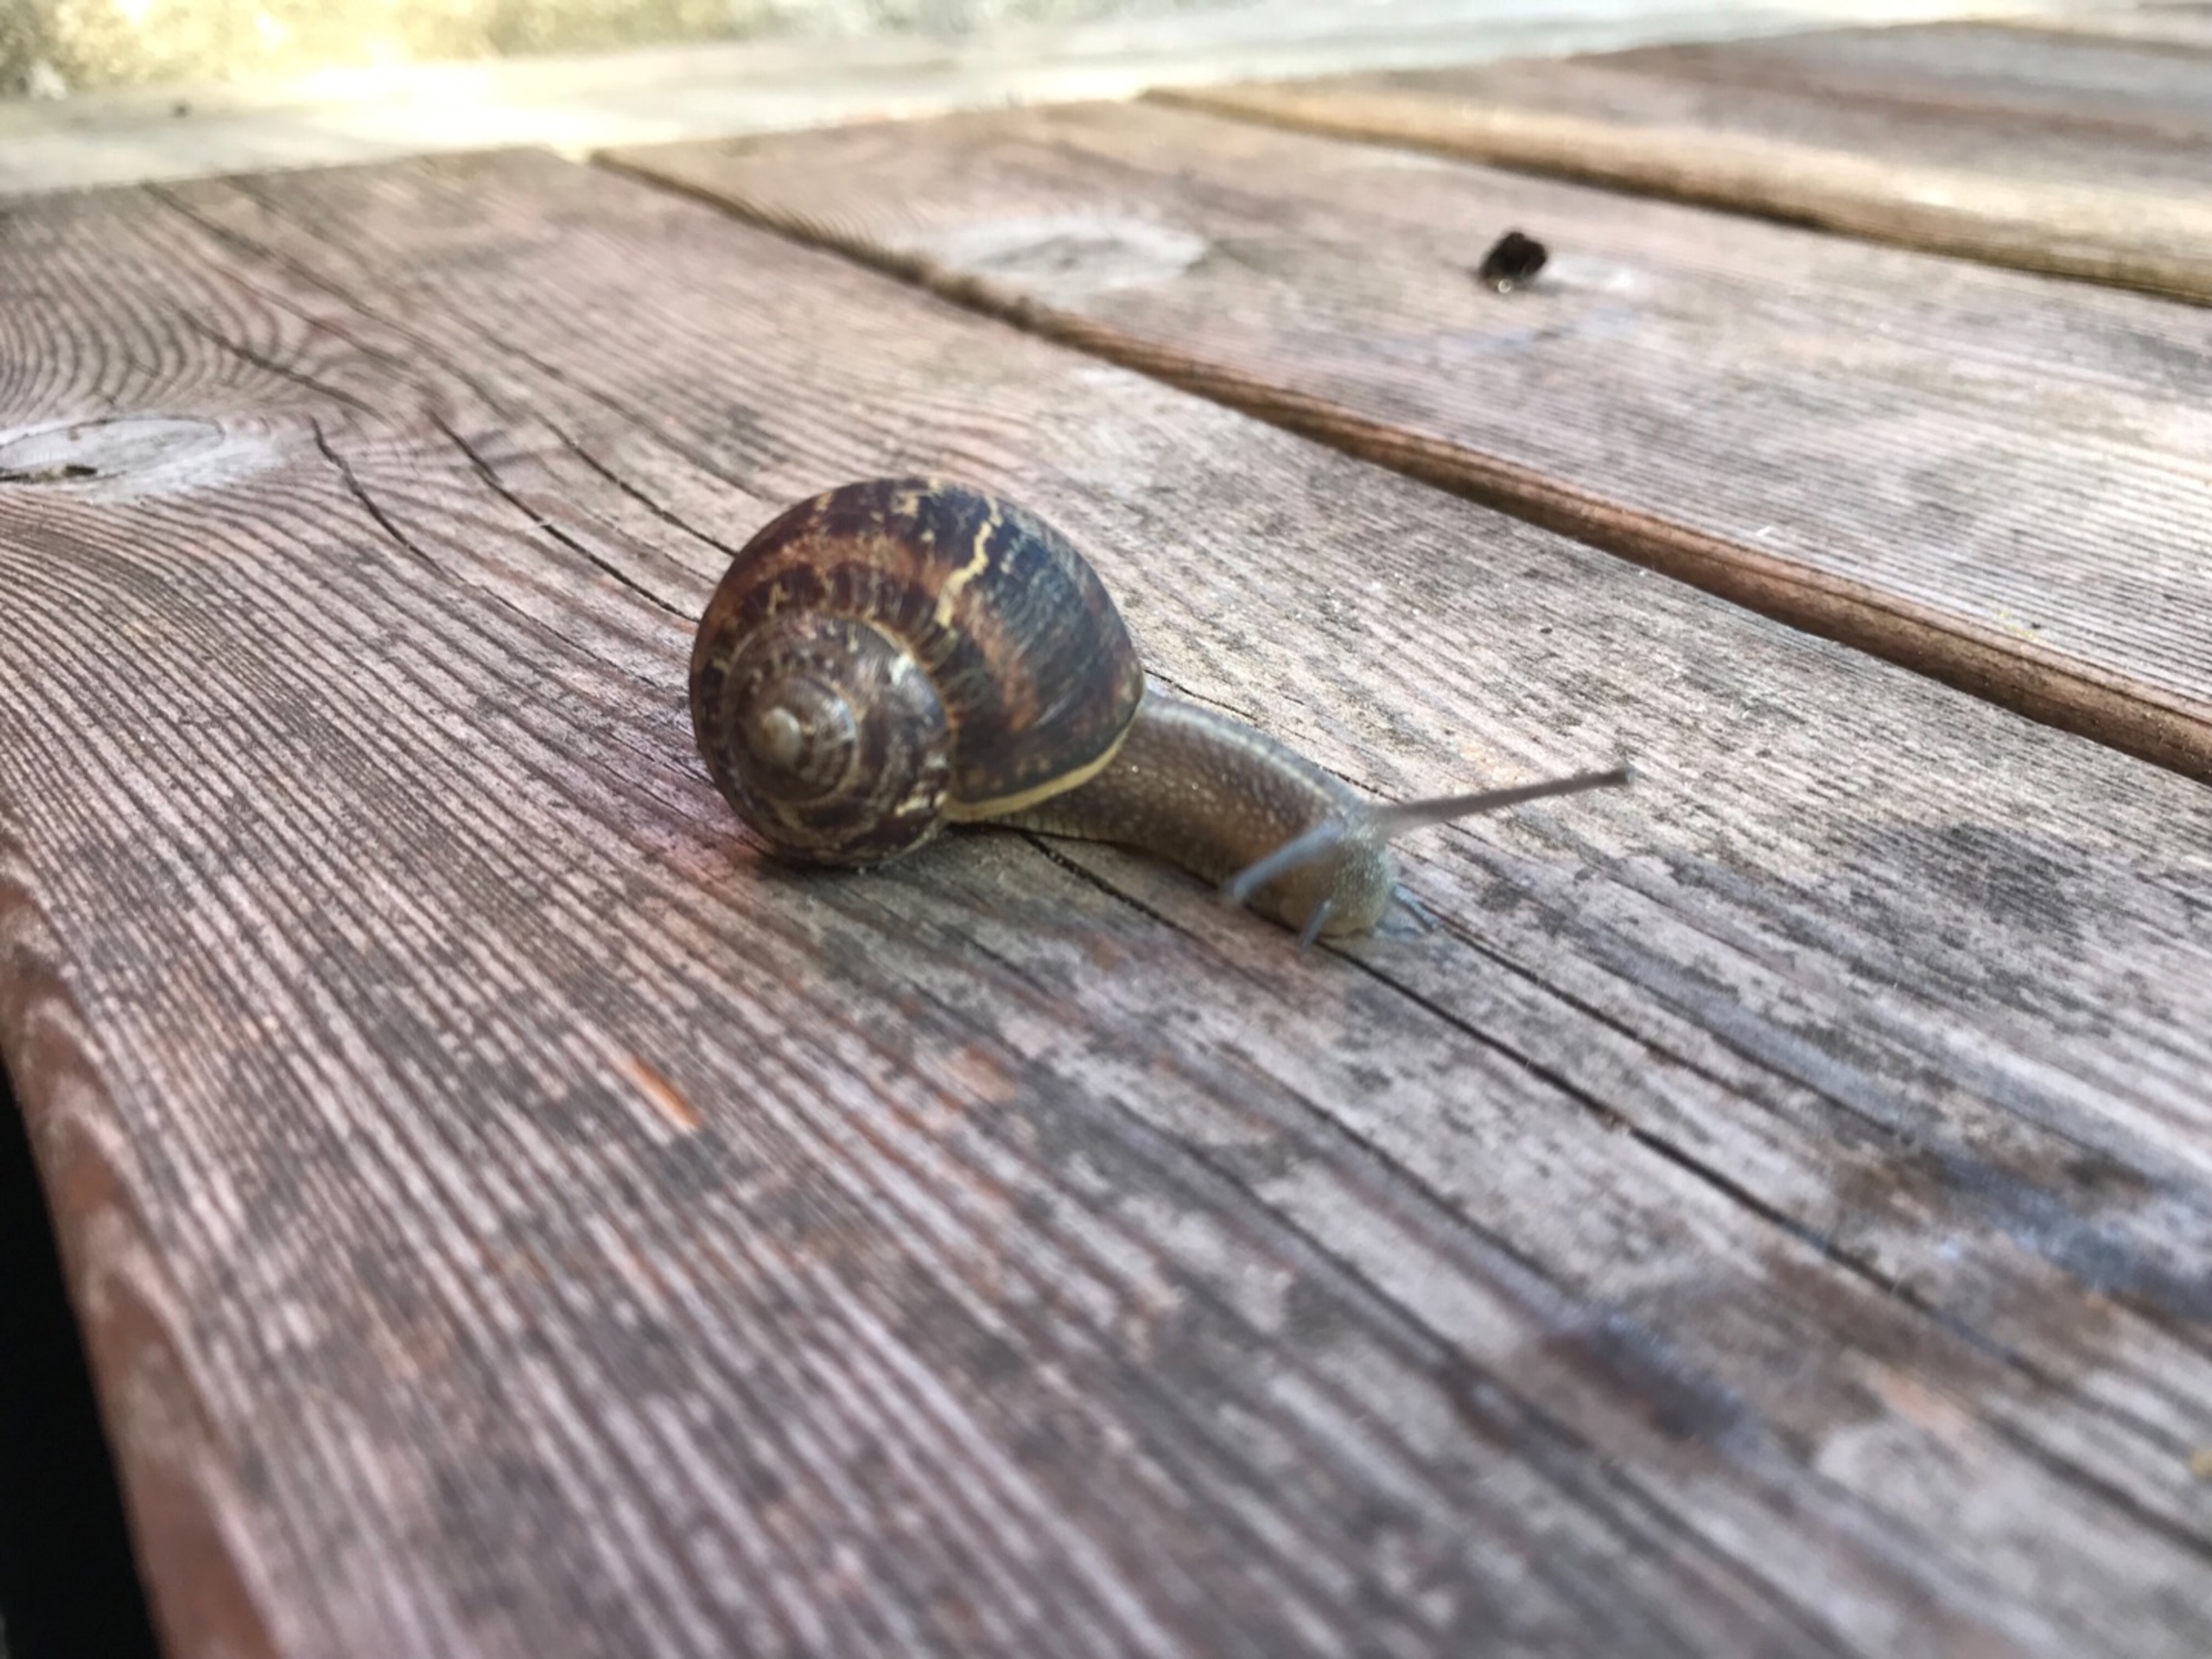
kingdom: Animalia
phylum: Mollusca
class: Gastropoda
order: Stylommatophora
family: Helicidae
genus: Cornu
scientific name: Cornu aspersum
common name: Plettet voldsnegl
